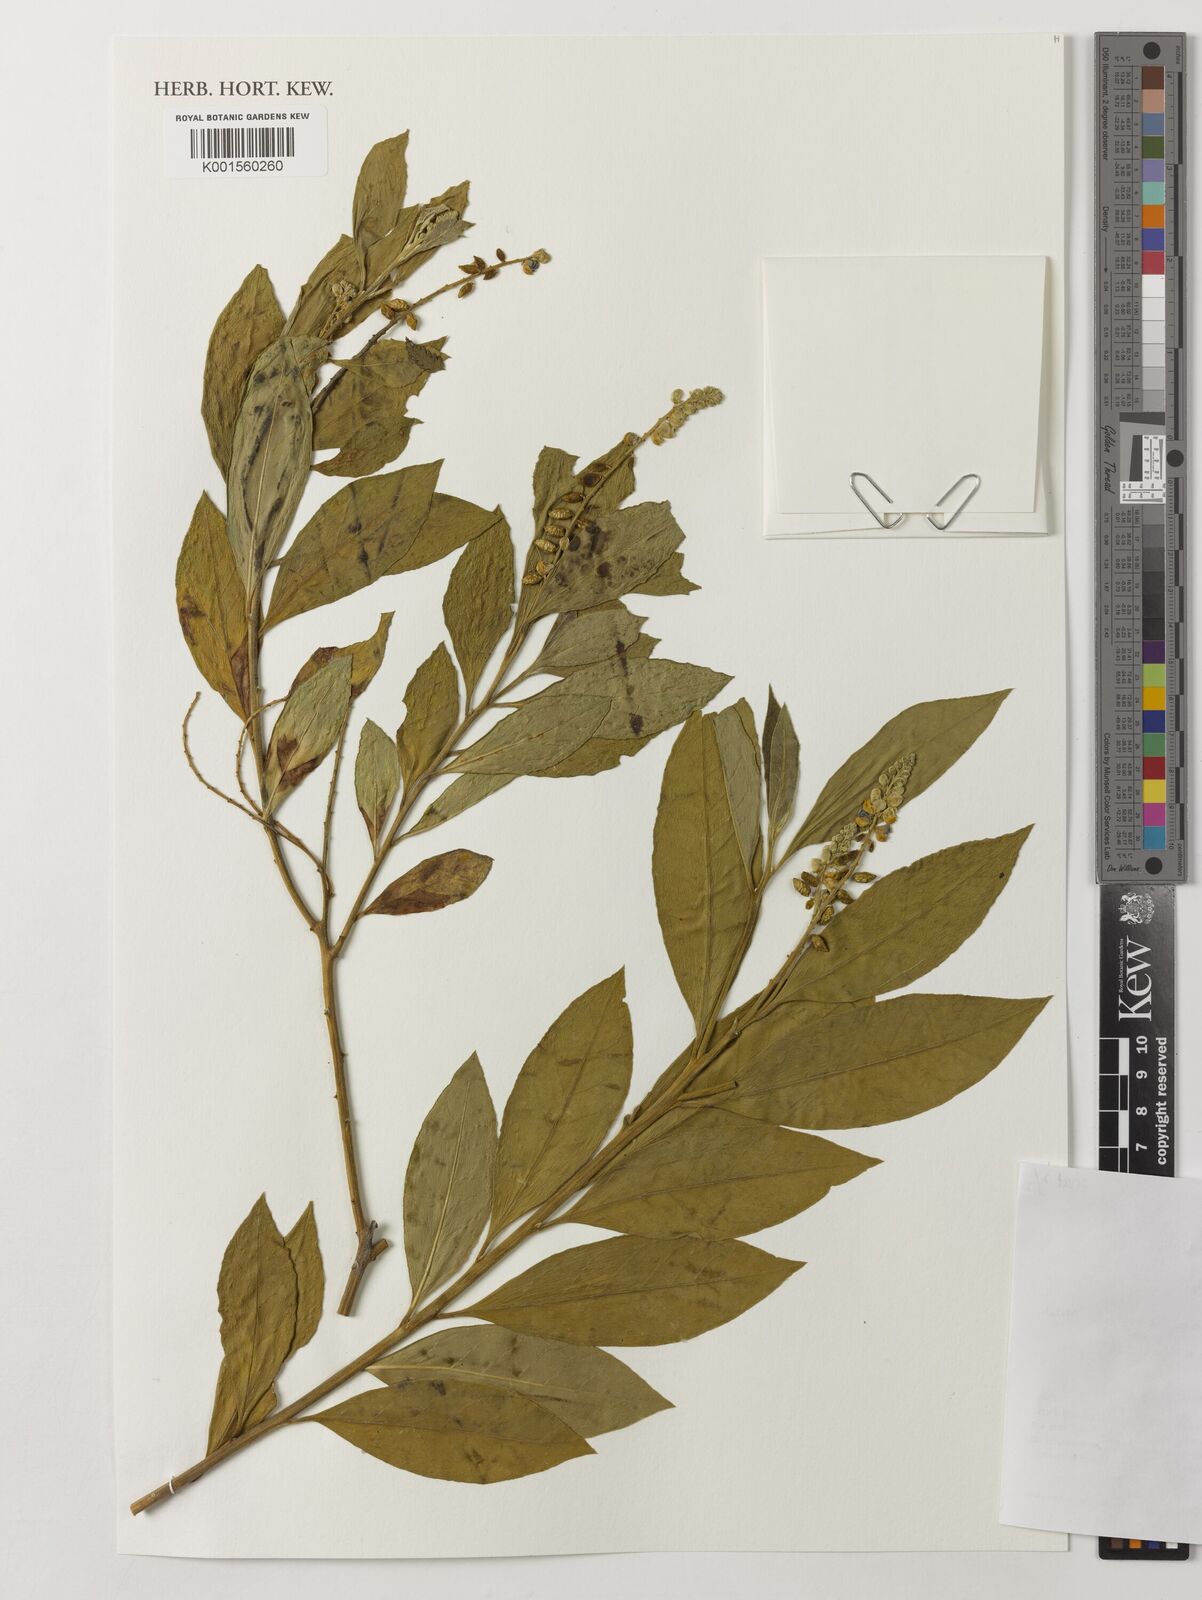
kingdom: Plantae
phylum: Tracheophyta
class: Magnoliopsida
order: Fabales
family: Polygalaceae
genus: Monnina
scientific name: Monnina
